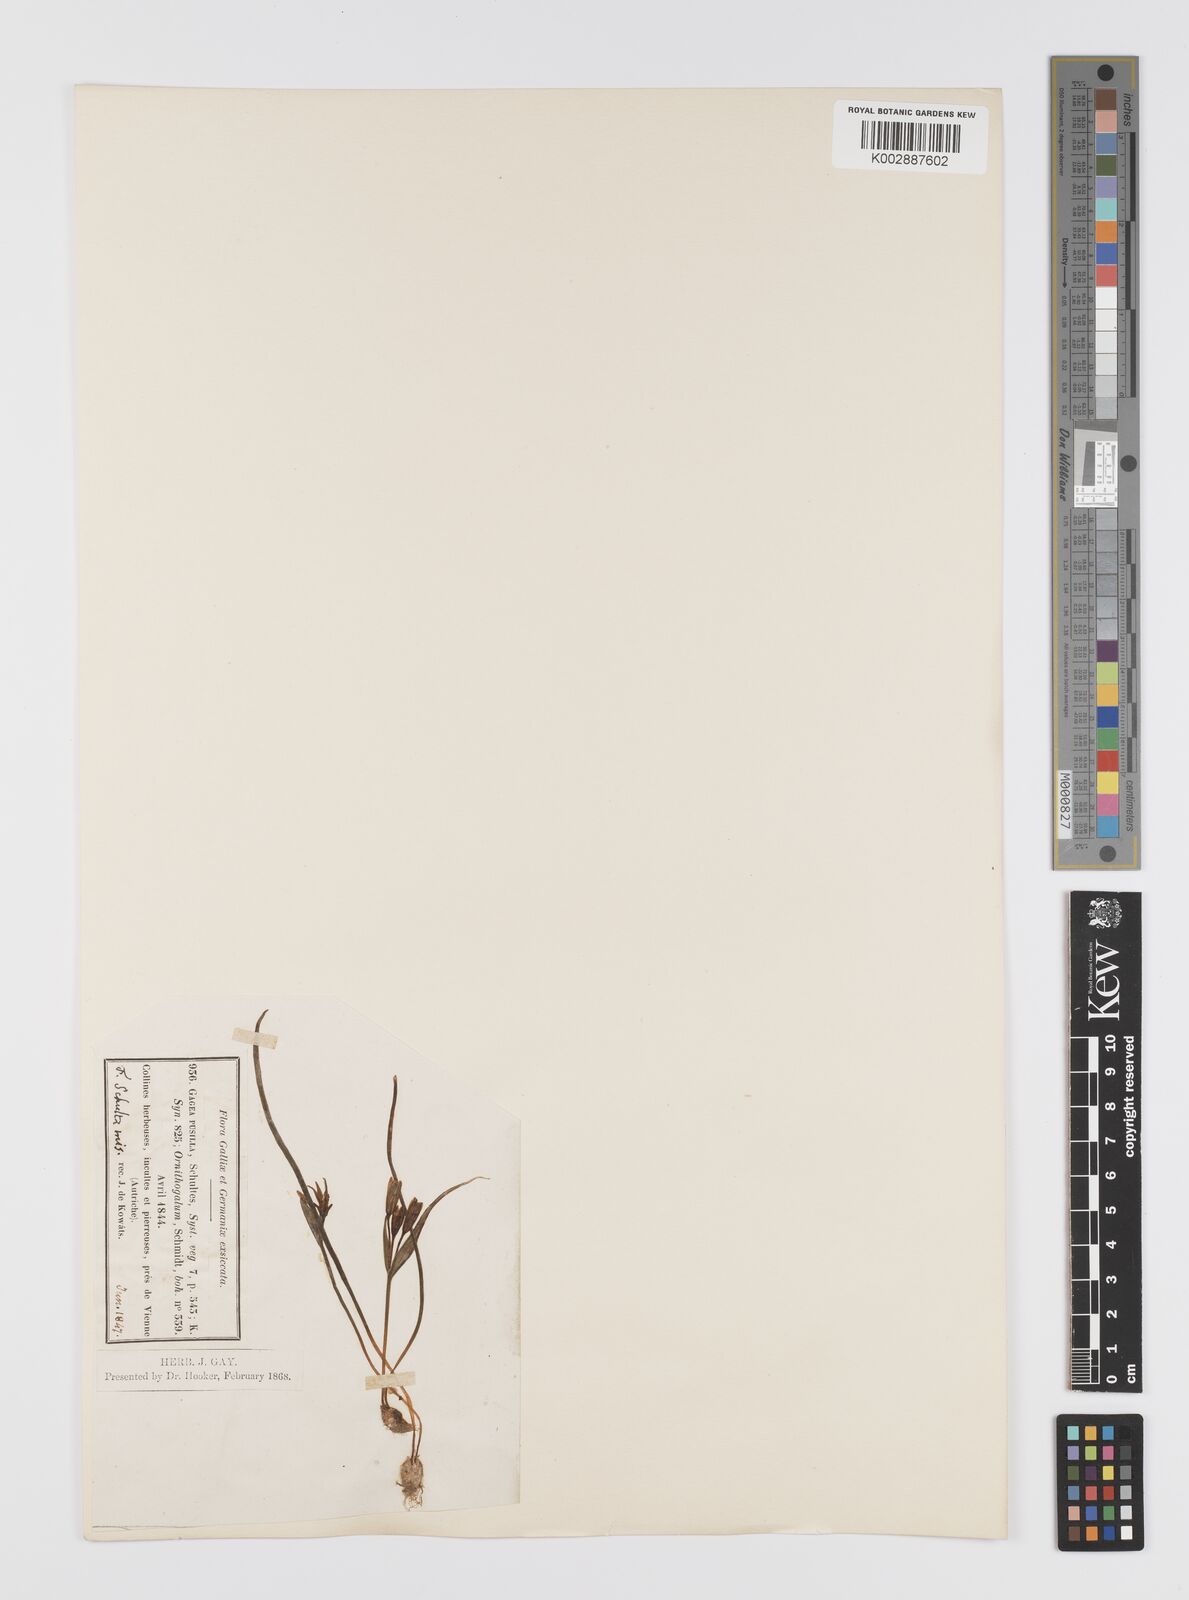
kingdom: Plantae
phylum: Tracheophyta
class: Liliopsida
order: Liliales
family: Liliaceae
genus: Gagea
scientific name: Gagea pusilla
